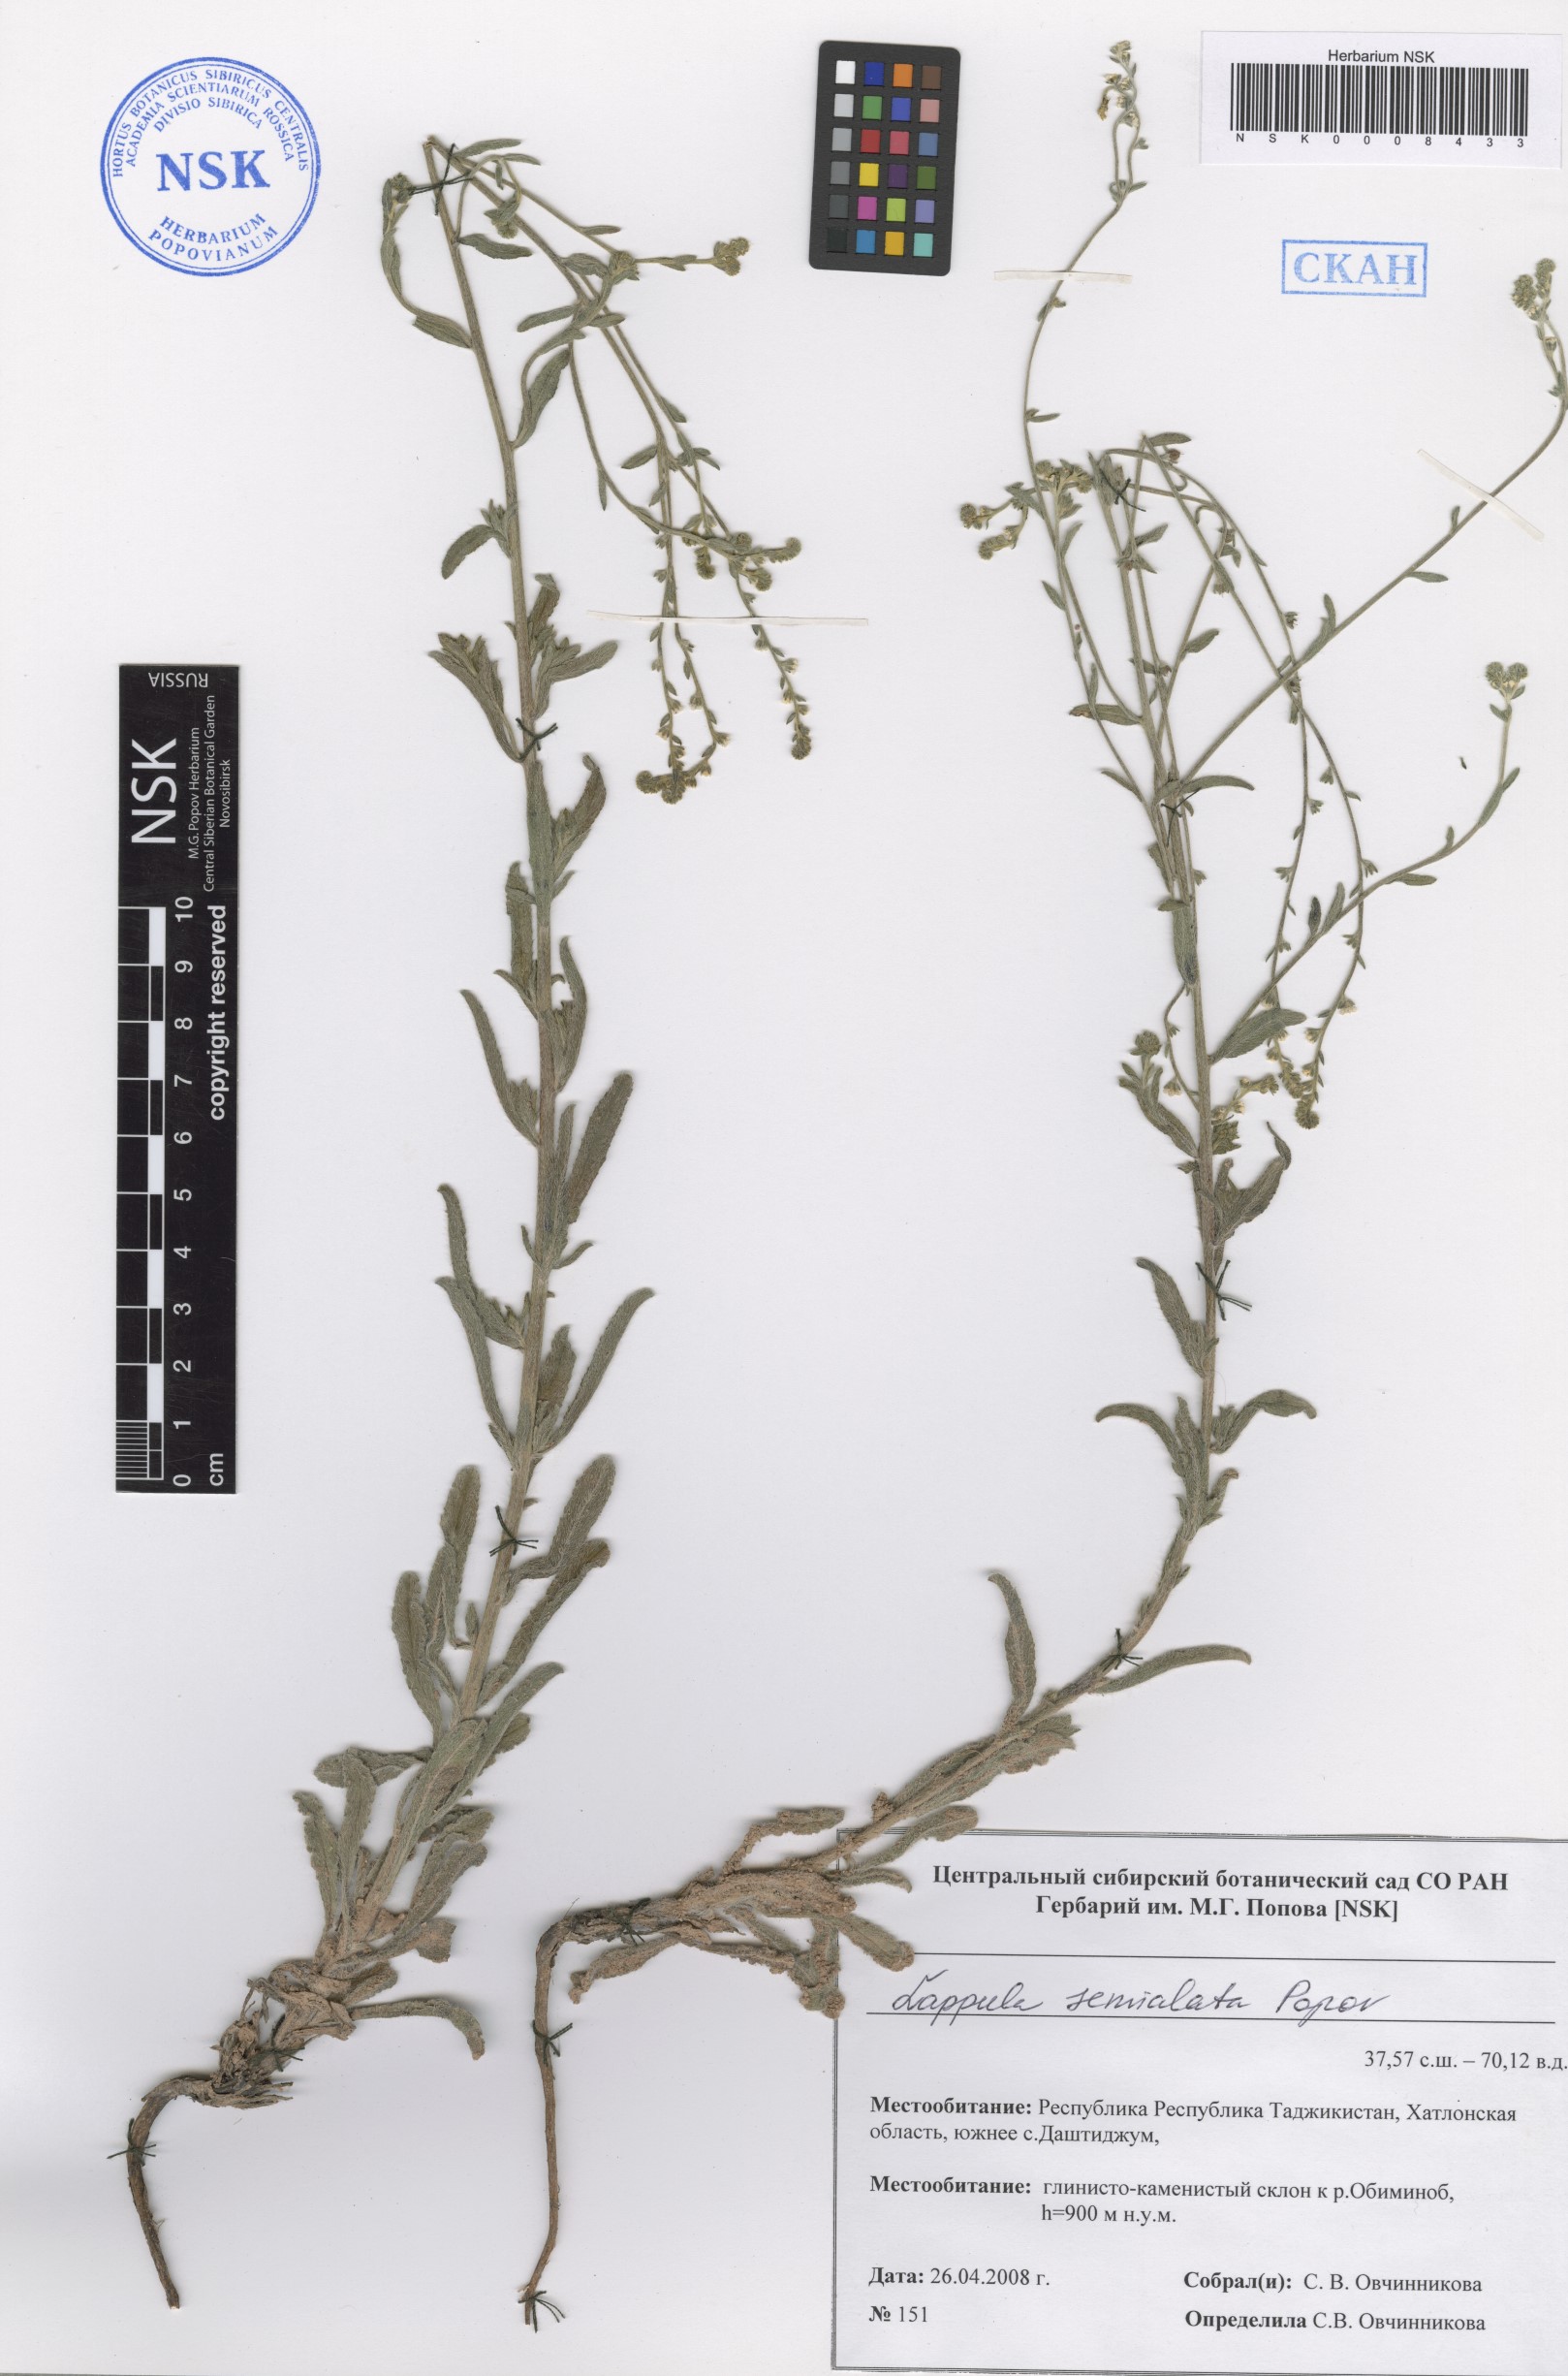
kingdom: Plantae
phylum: Tracheophyta
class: Magnoliopsida
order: Boraginales
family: Boraginaceae
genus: Lappula
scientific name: Lappula semialata
